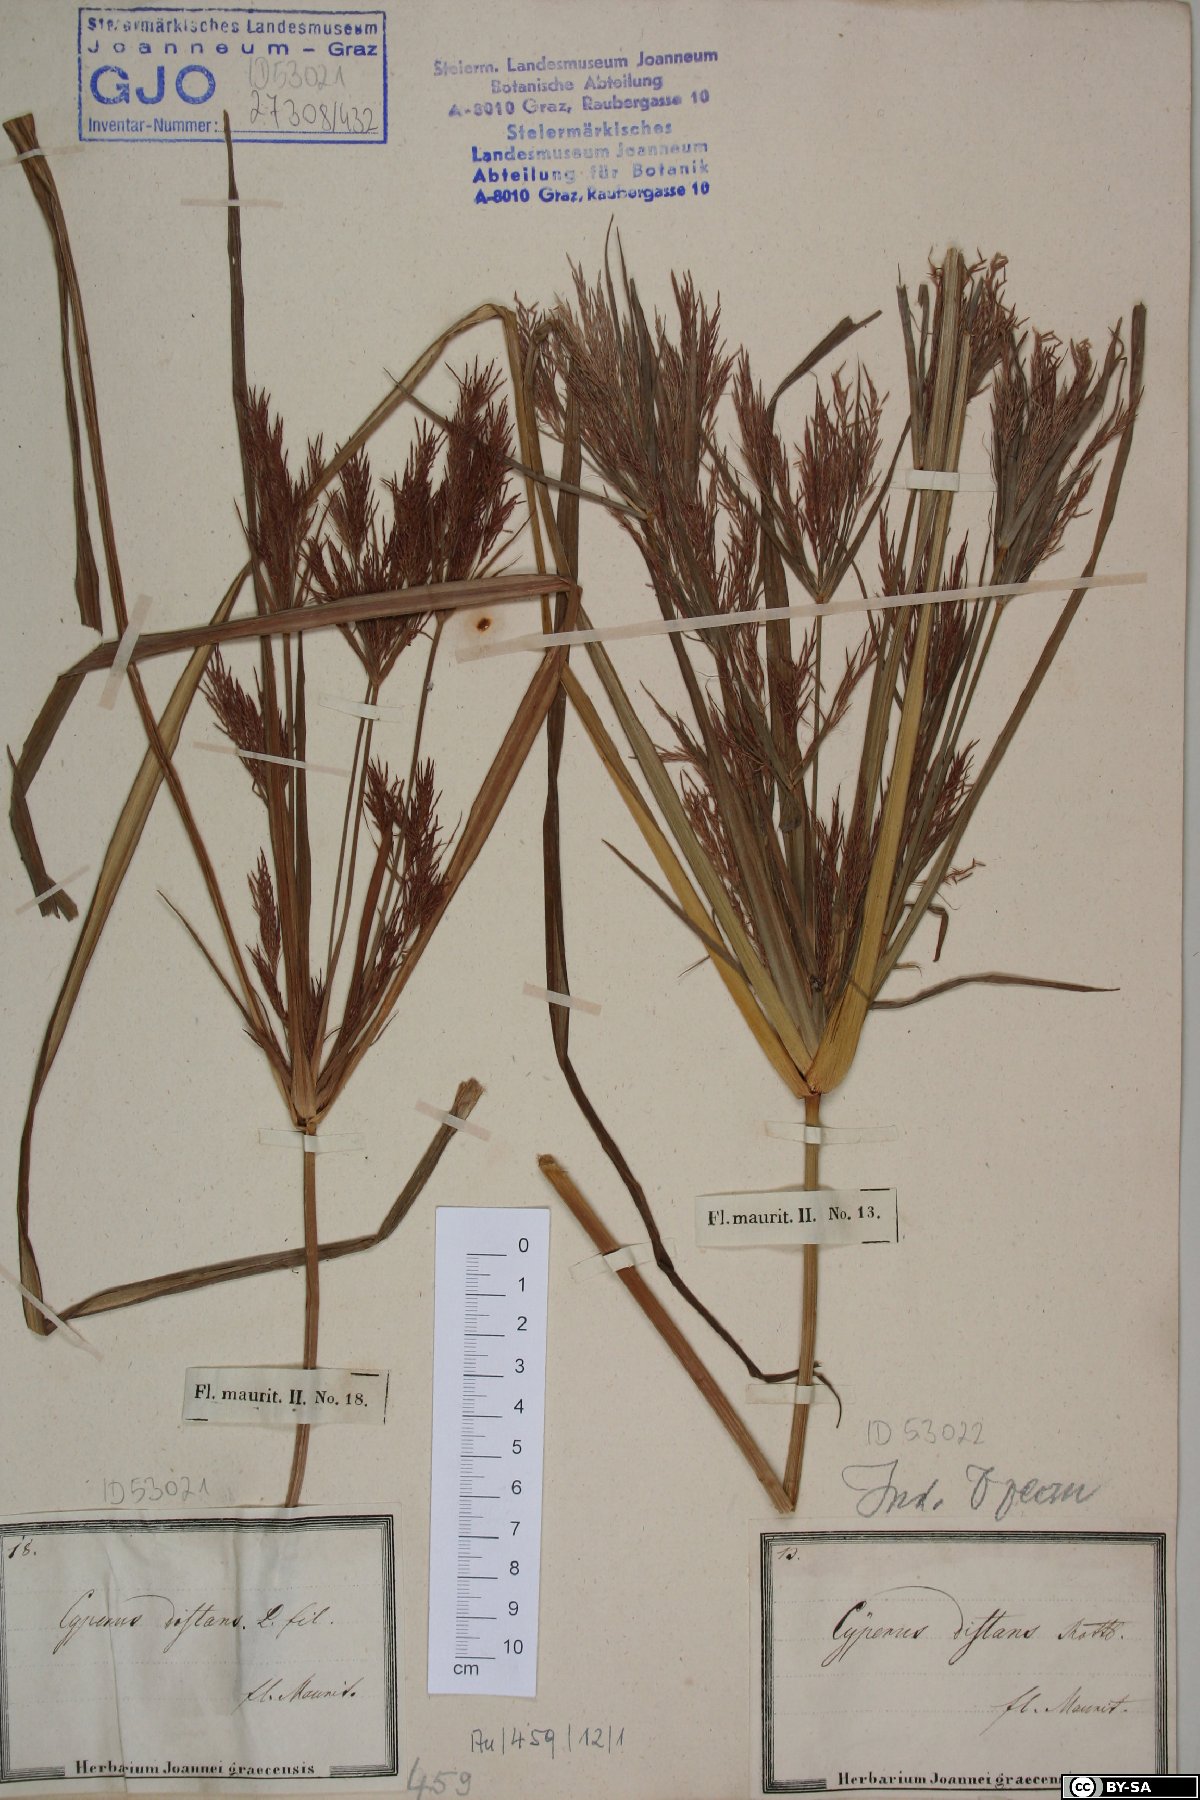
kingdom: Plantae
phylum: Tracheophyta
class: Liliopsida
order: Poales
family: Cyperaceae
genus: Cyperus
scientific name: Cyperus distans
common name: Slender cyperus
